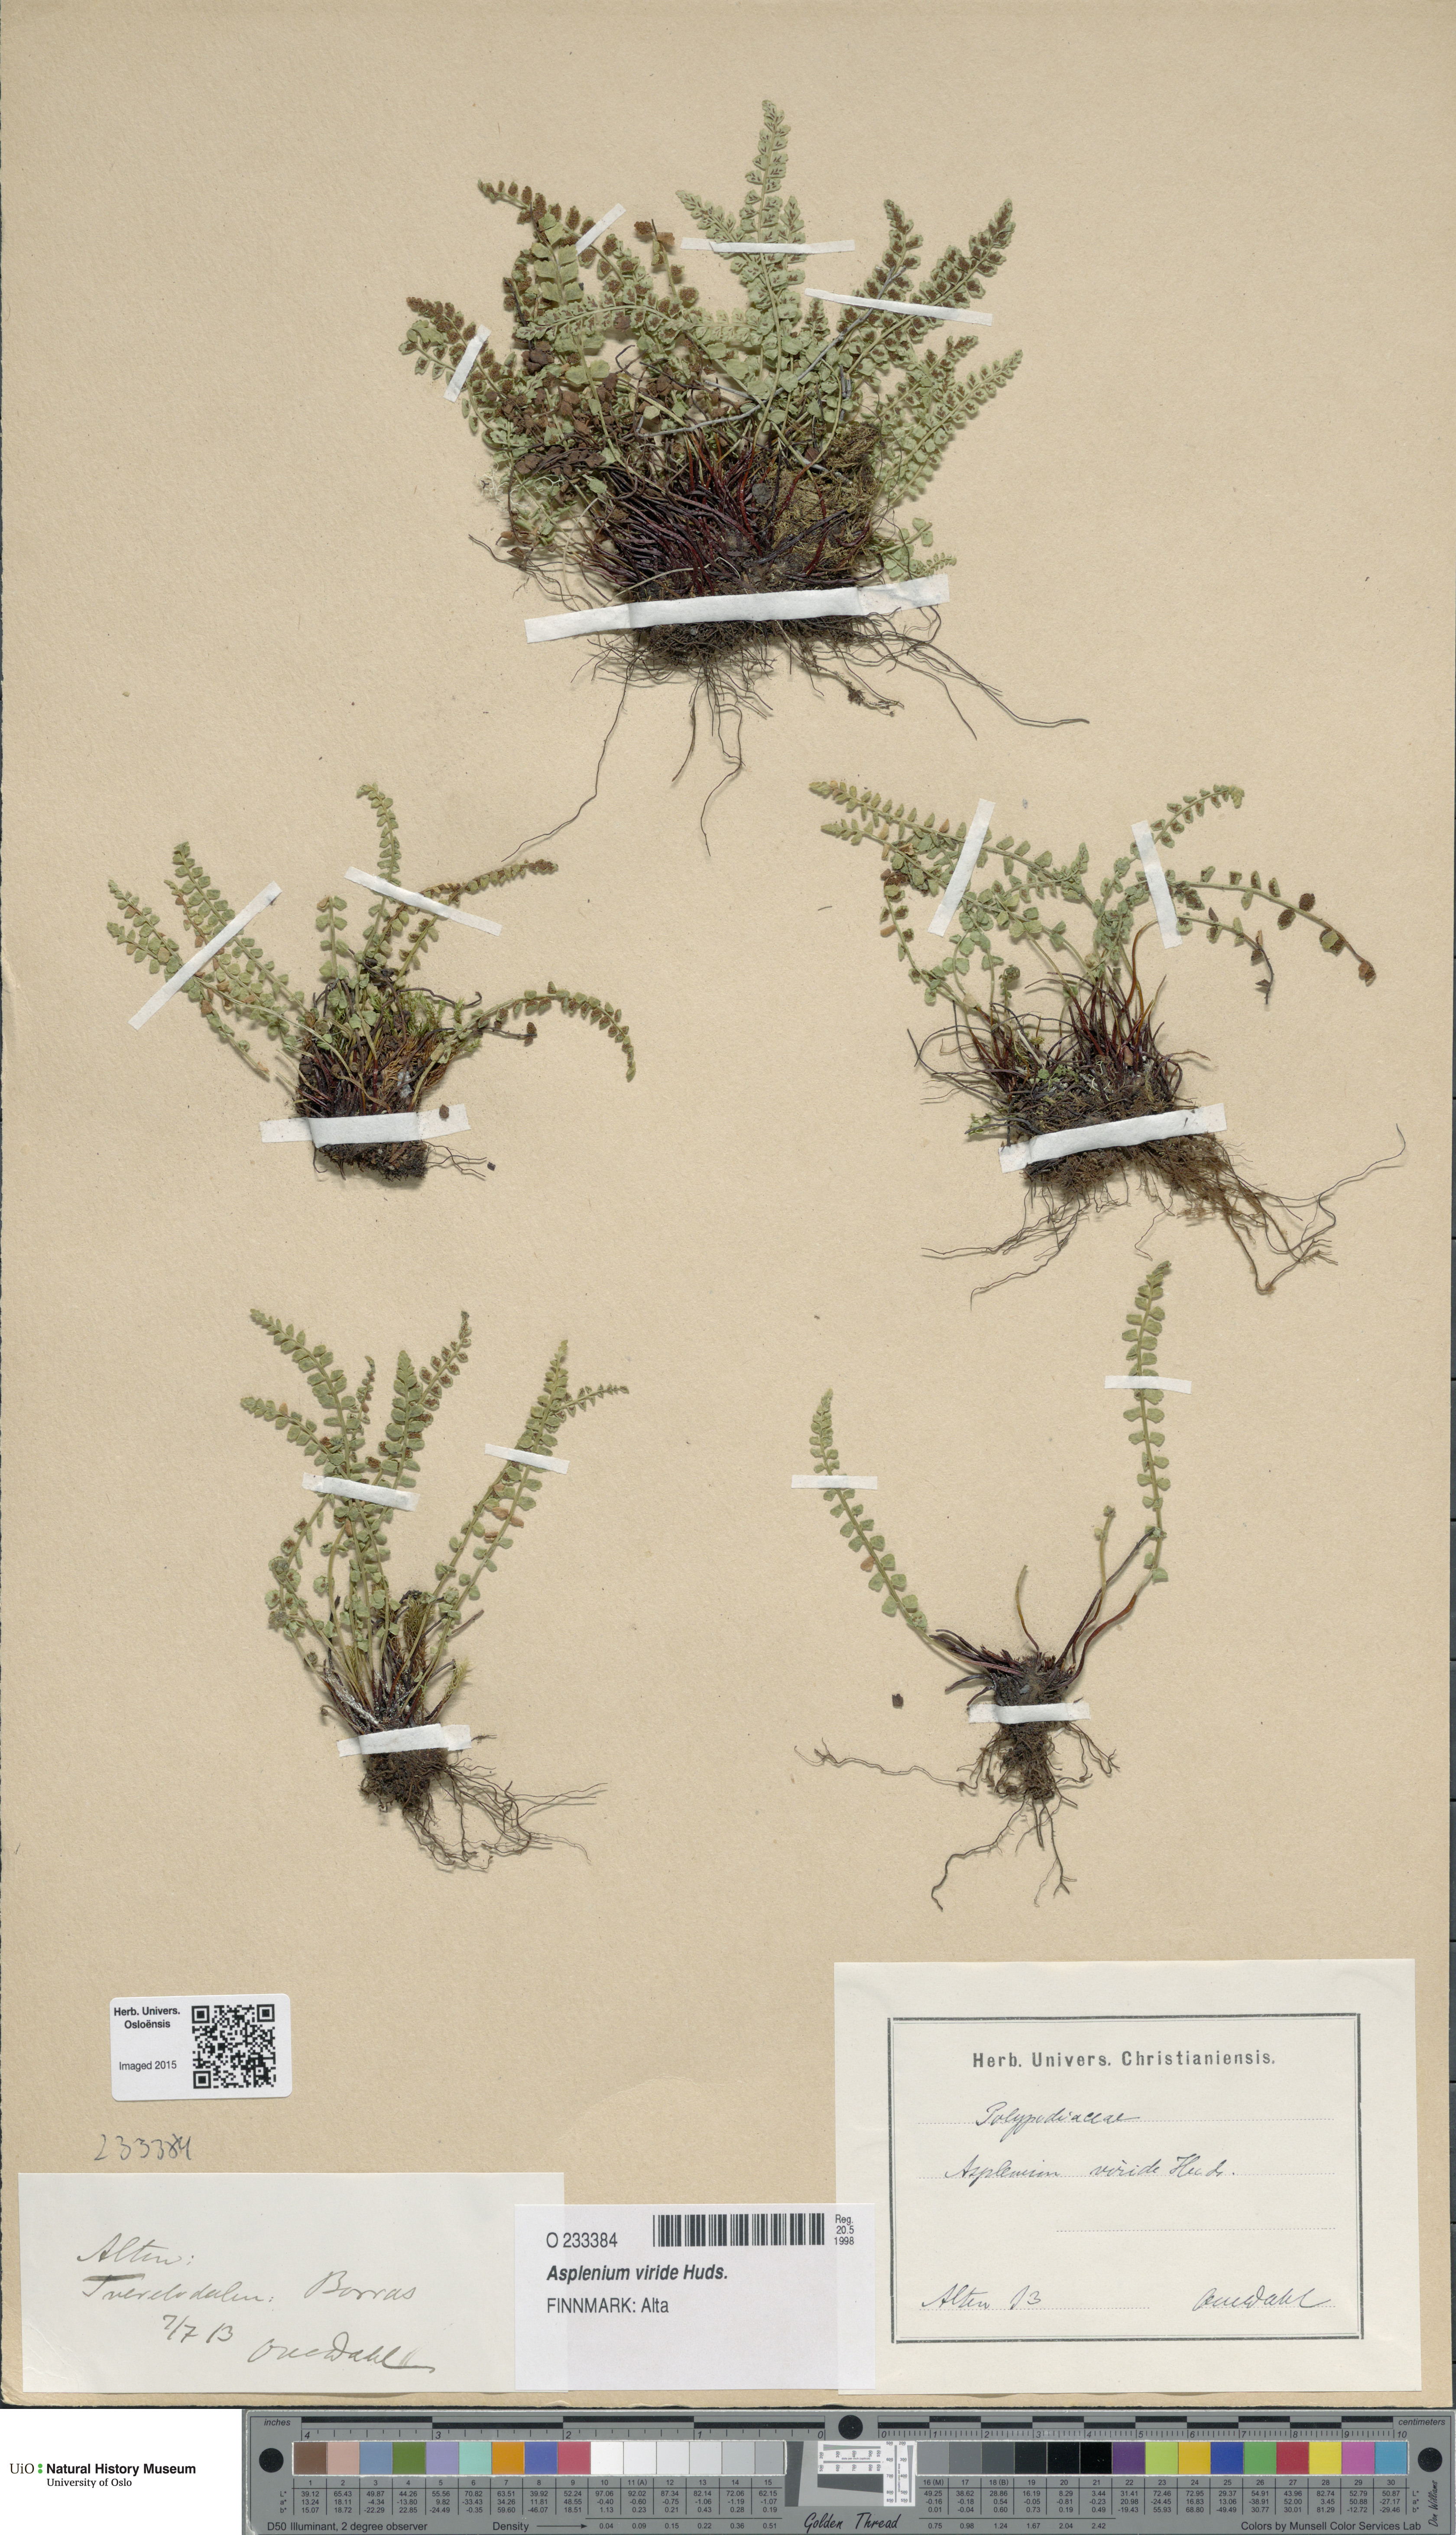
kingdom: Plantae
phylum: Tracheophyta
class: Polypodiopsida
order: Polypodiales
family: Aspleniaceae
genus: Asplenium
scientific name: Asplenium viride
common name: Green spleenwort
